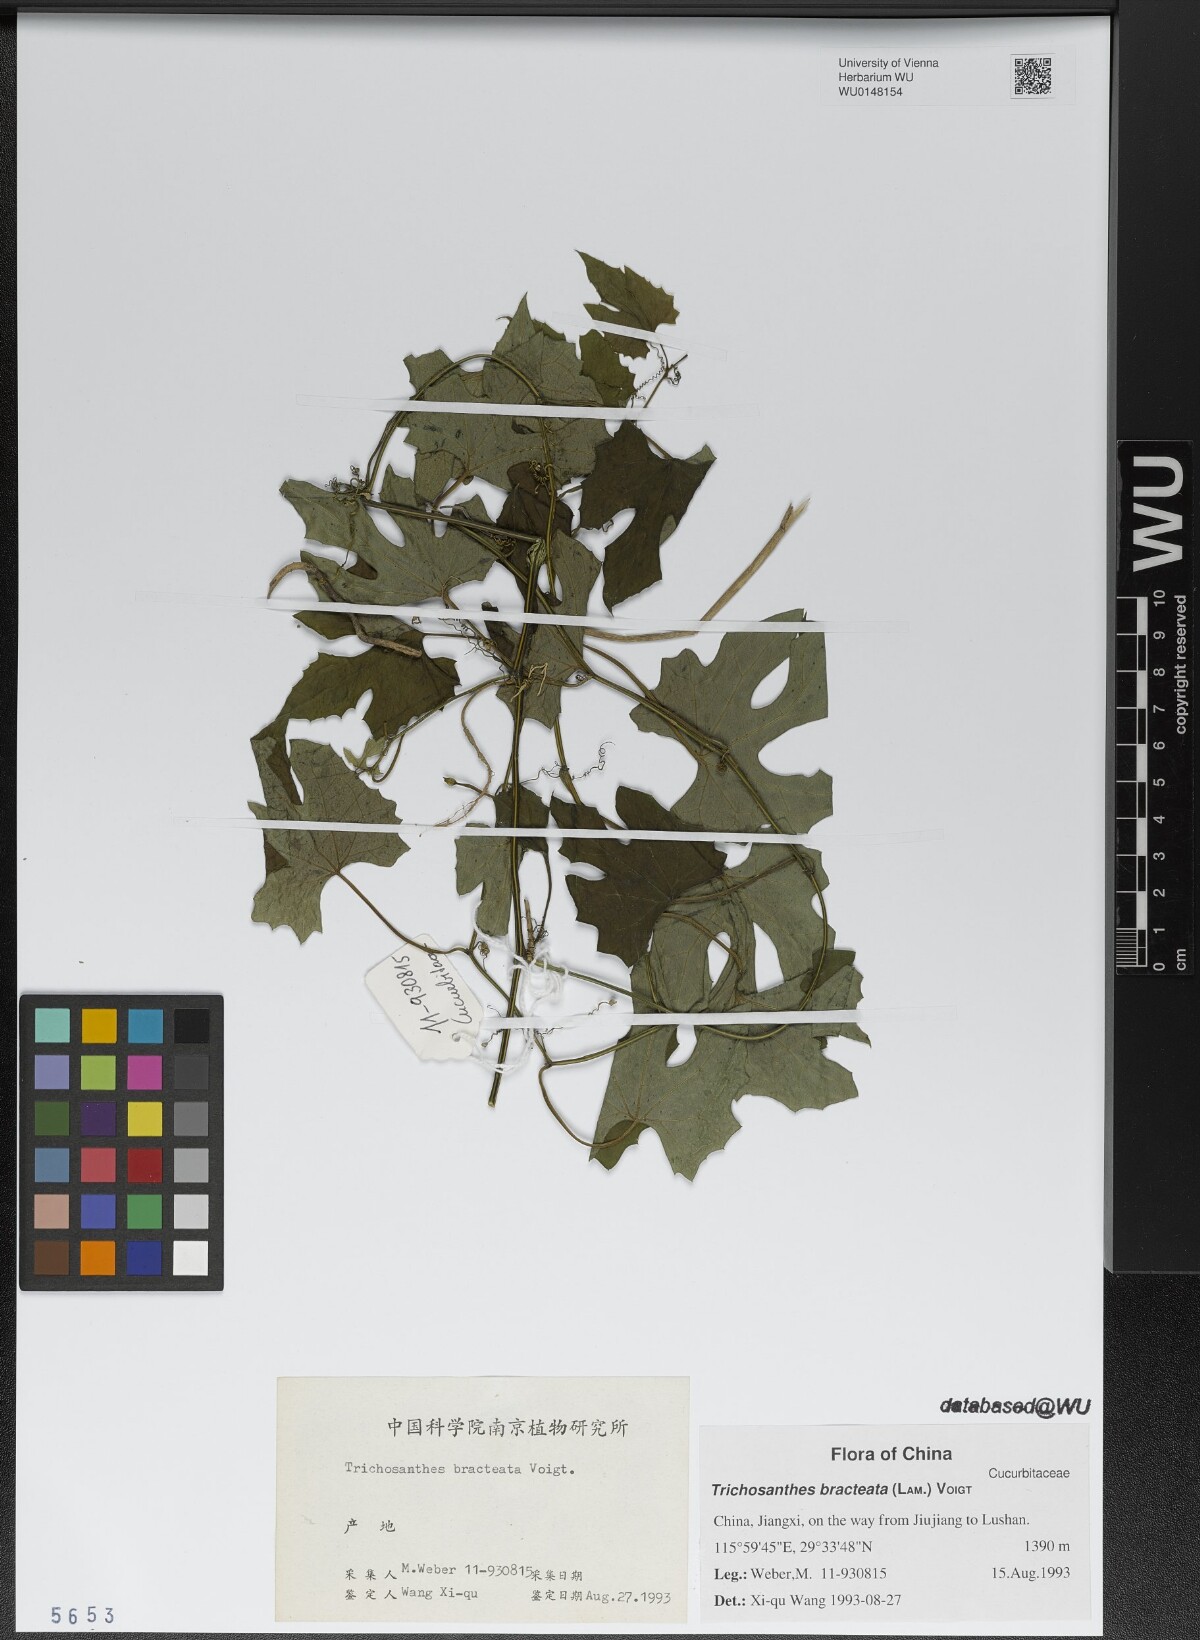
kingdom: Plantae
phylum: Tracheophyta
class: Magnoliopsida
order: Cucurbitales
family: Cucurbitaceae
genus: Trichosanthes
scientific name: Trichosanthes bracteata
